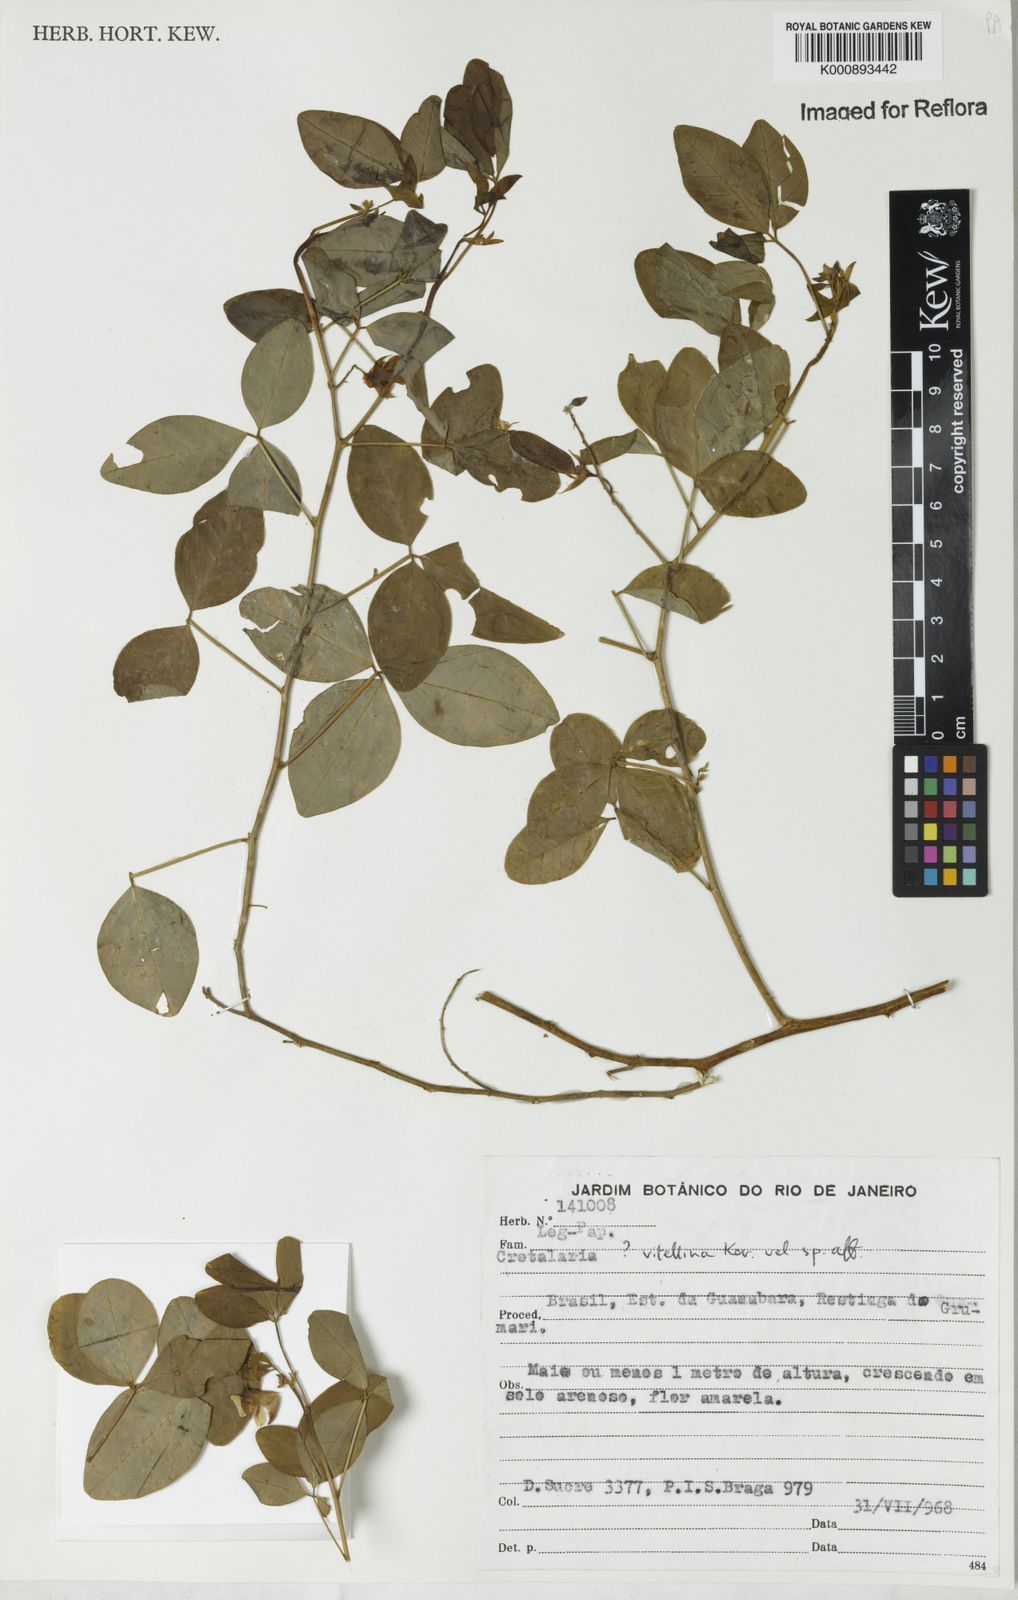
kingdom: Plantae
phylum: Tracheophyta
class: Magnoliopsida
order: Fabales
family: Fabaceae
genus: Crotalaria
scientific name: Crotalaria vitellina
